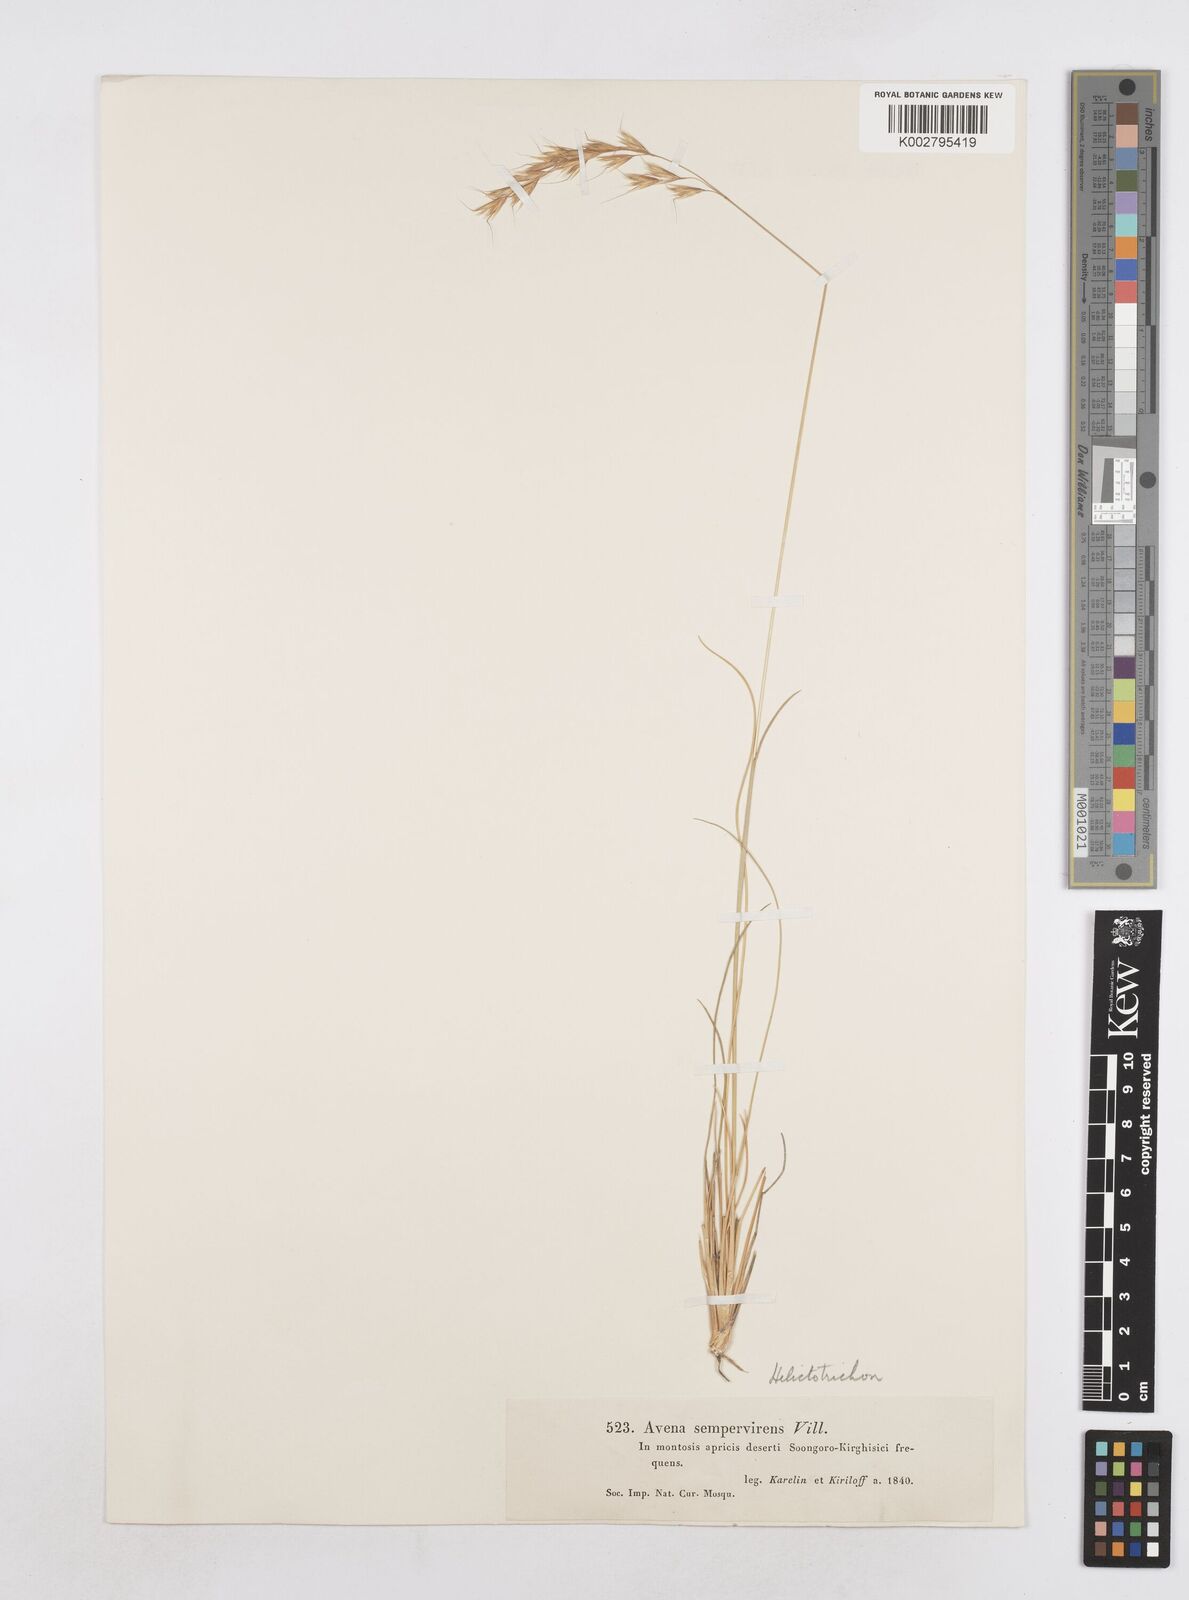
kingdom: Plantae
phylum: Tracheophyta
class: Liliopsida
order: Poales
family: Poaceae
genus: Helictotrichon
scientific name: Helictotrichon sempervirens
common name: Blue oat-grass
